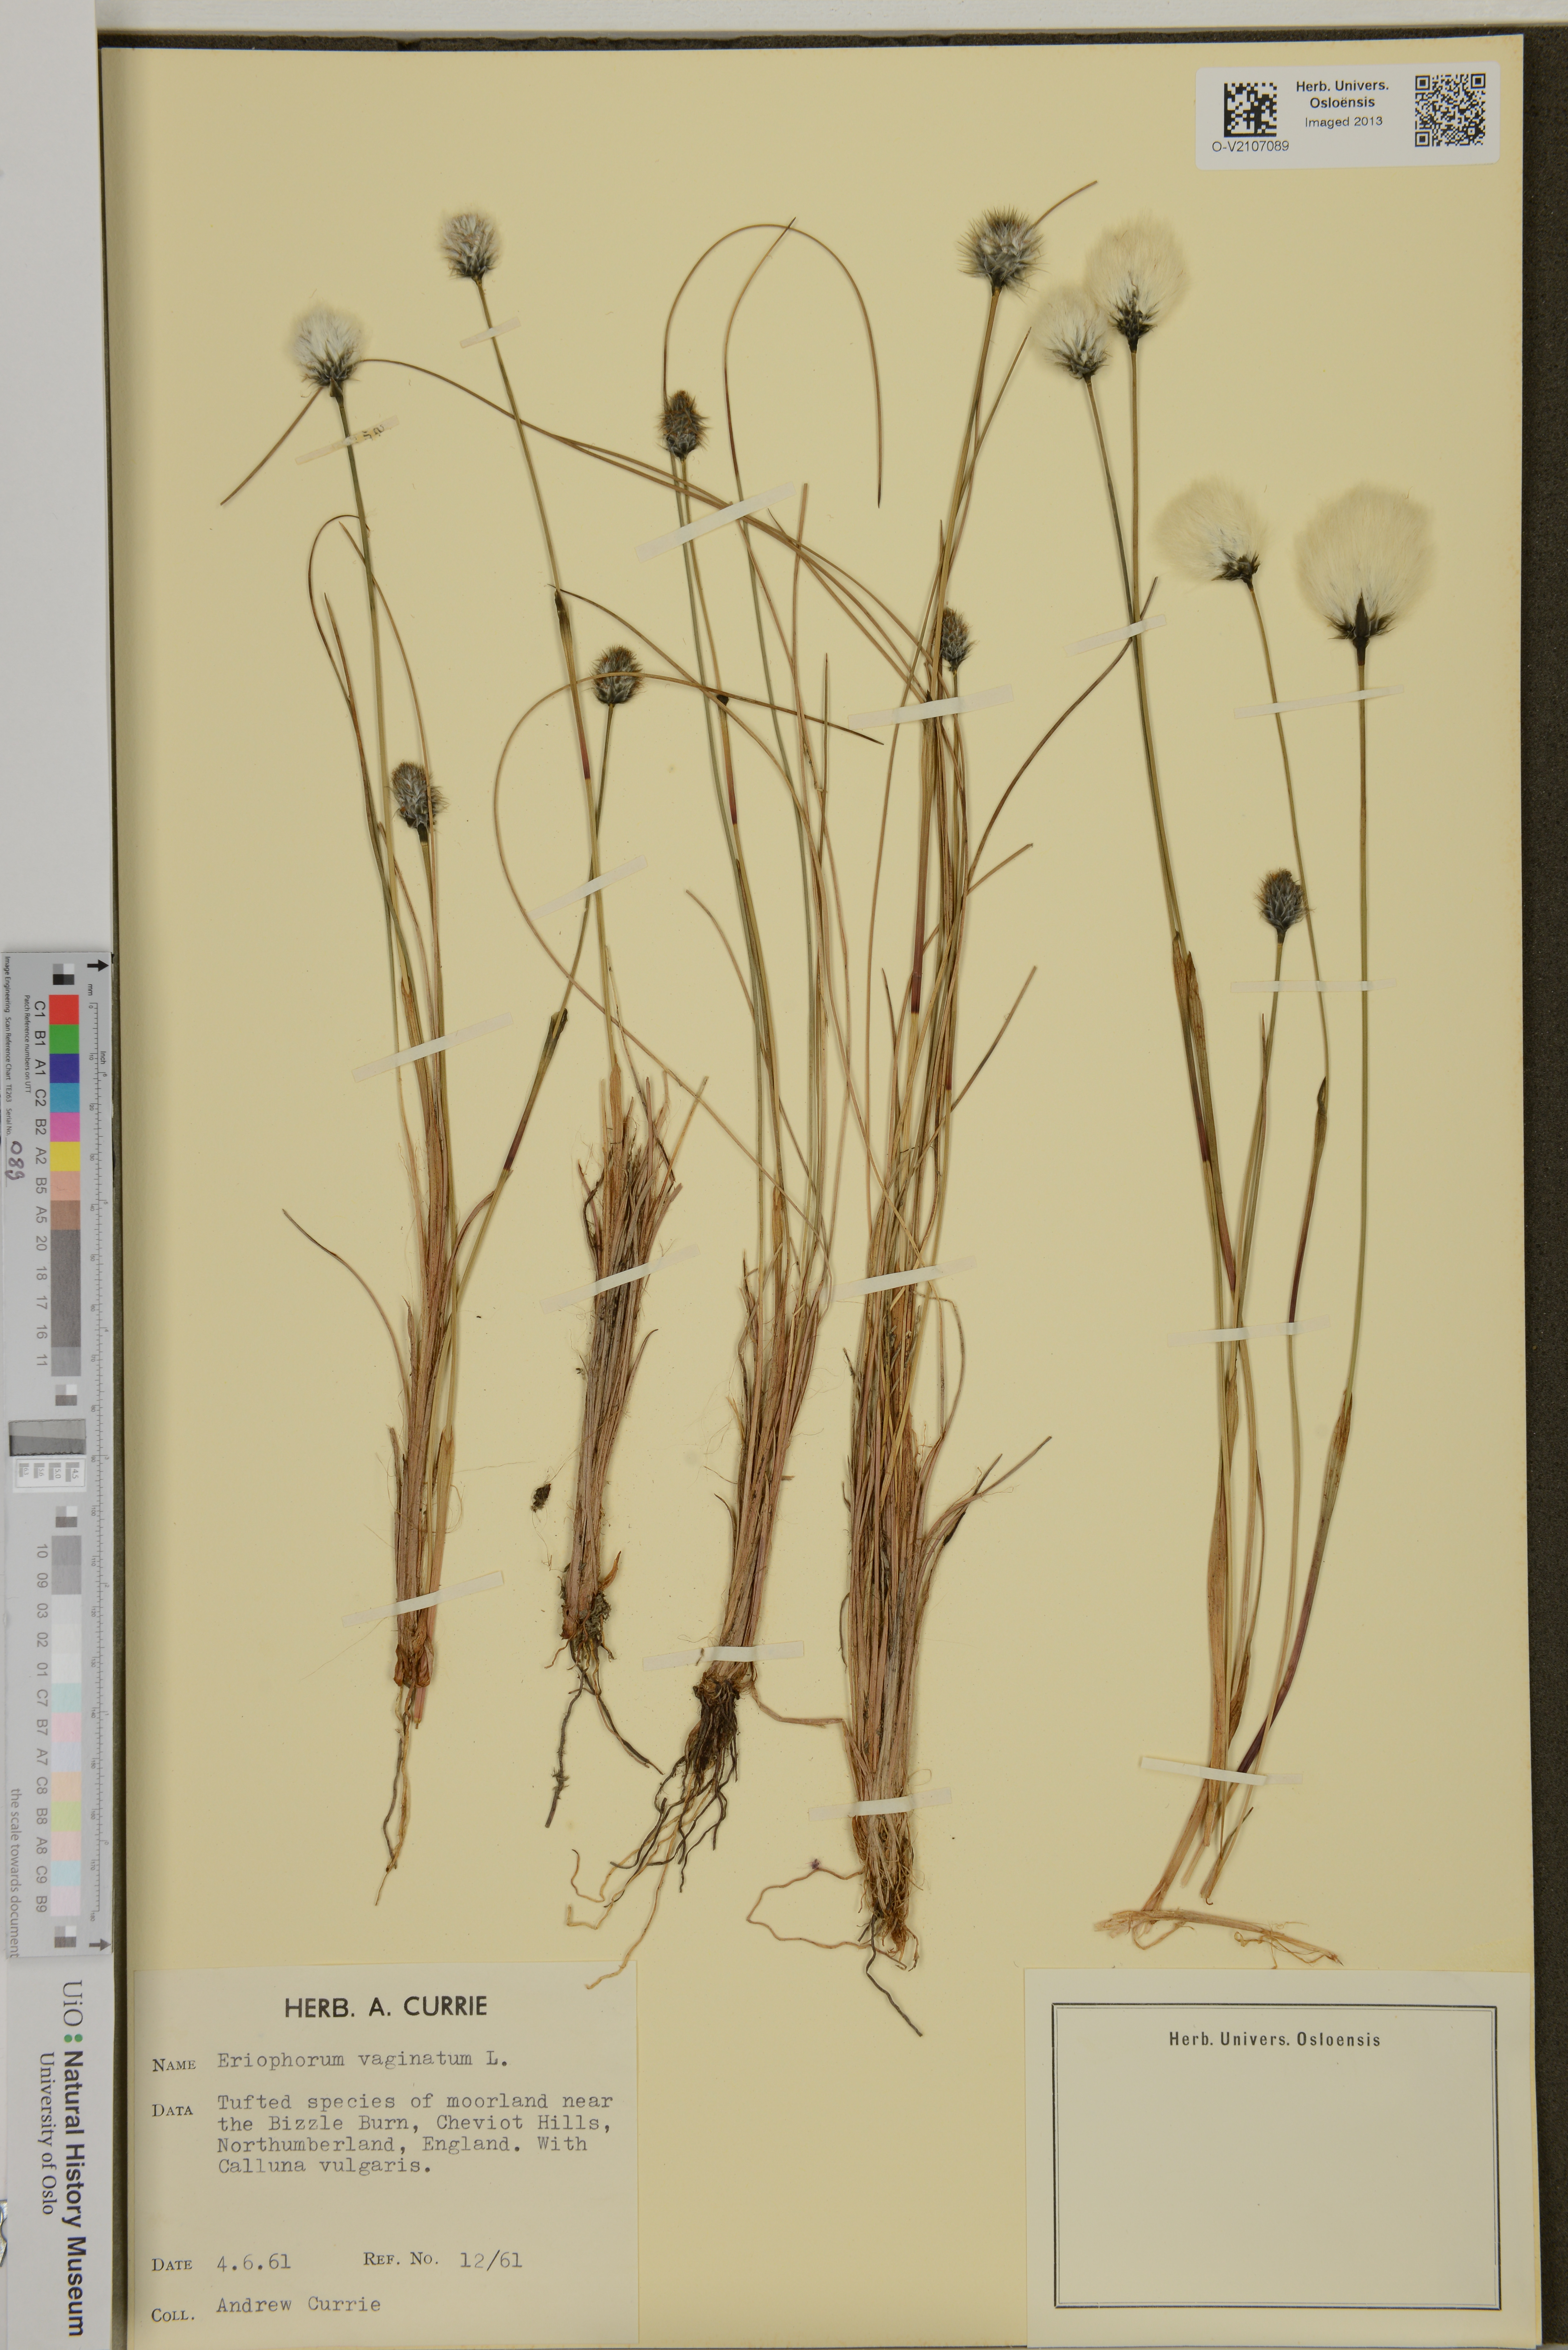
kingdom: Plantae
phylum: Tracheophyta
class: Liliopsida
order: Poales
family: Cyperaceae
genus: Eriophorum
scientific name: Eriophorum vaginatum
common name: Hare's-tail cottongrass
